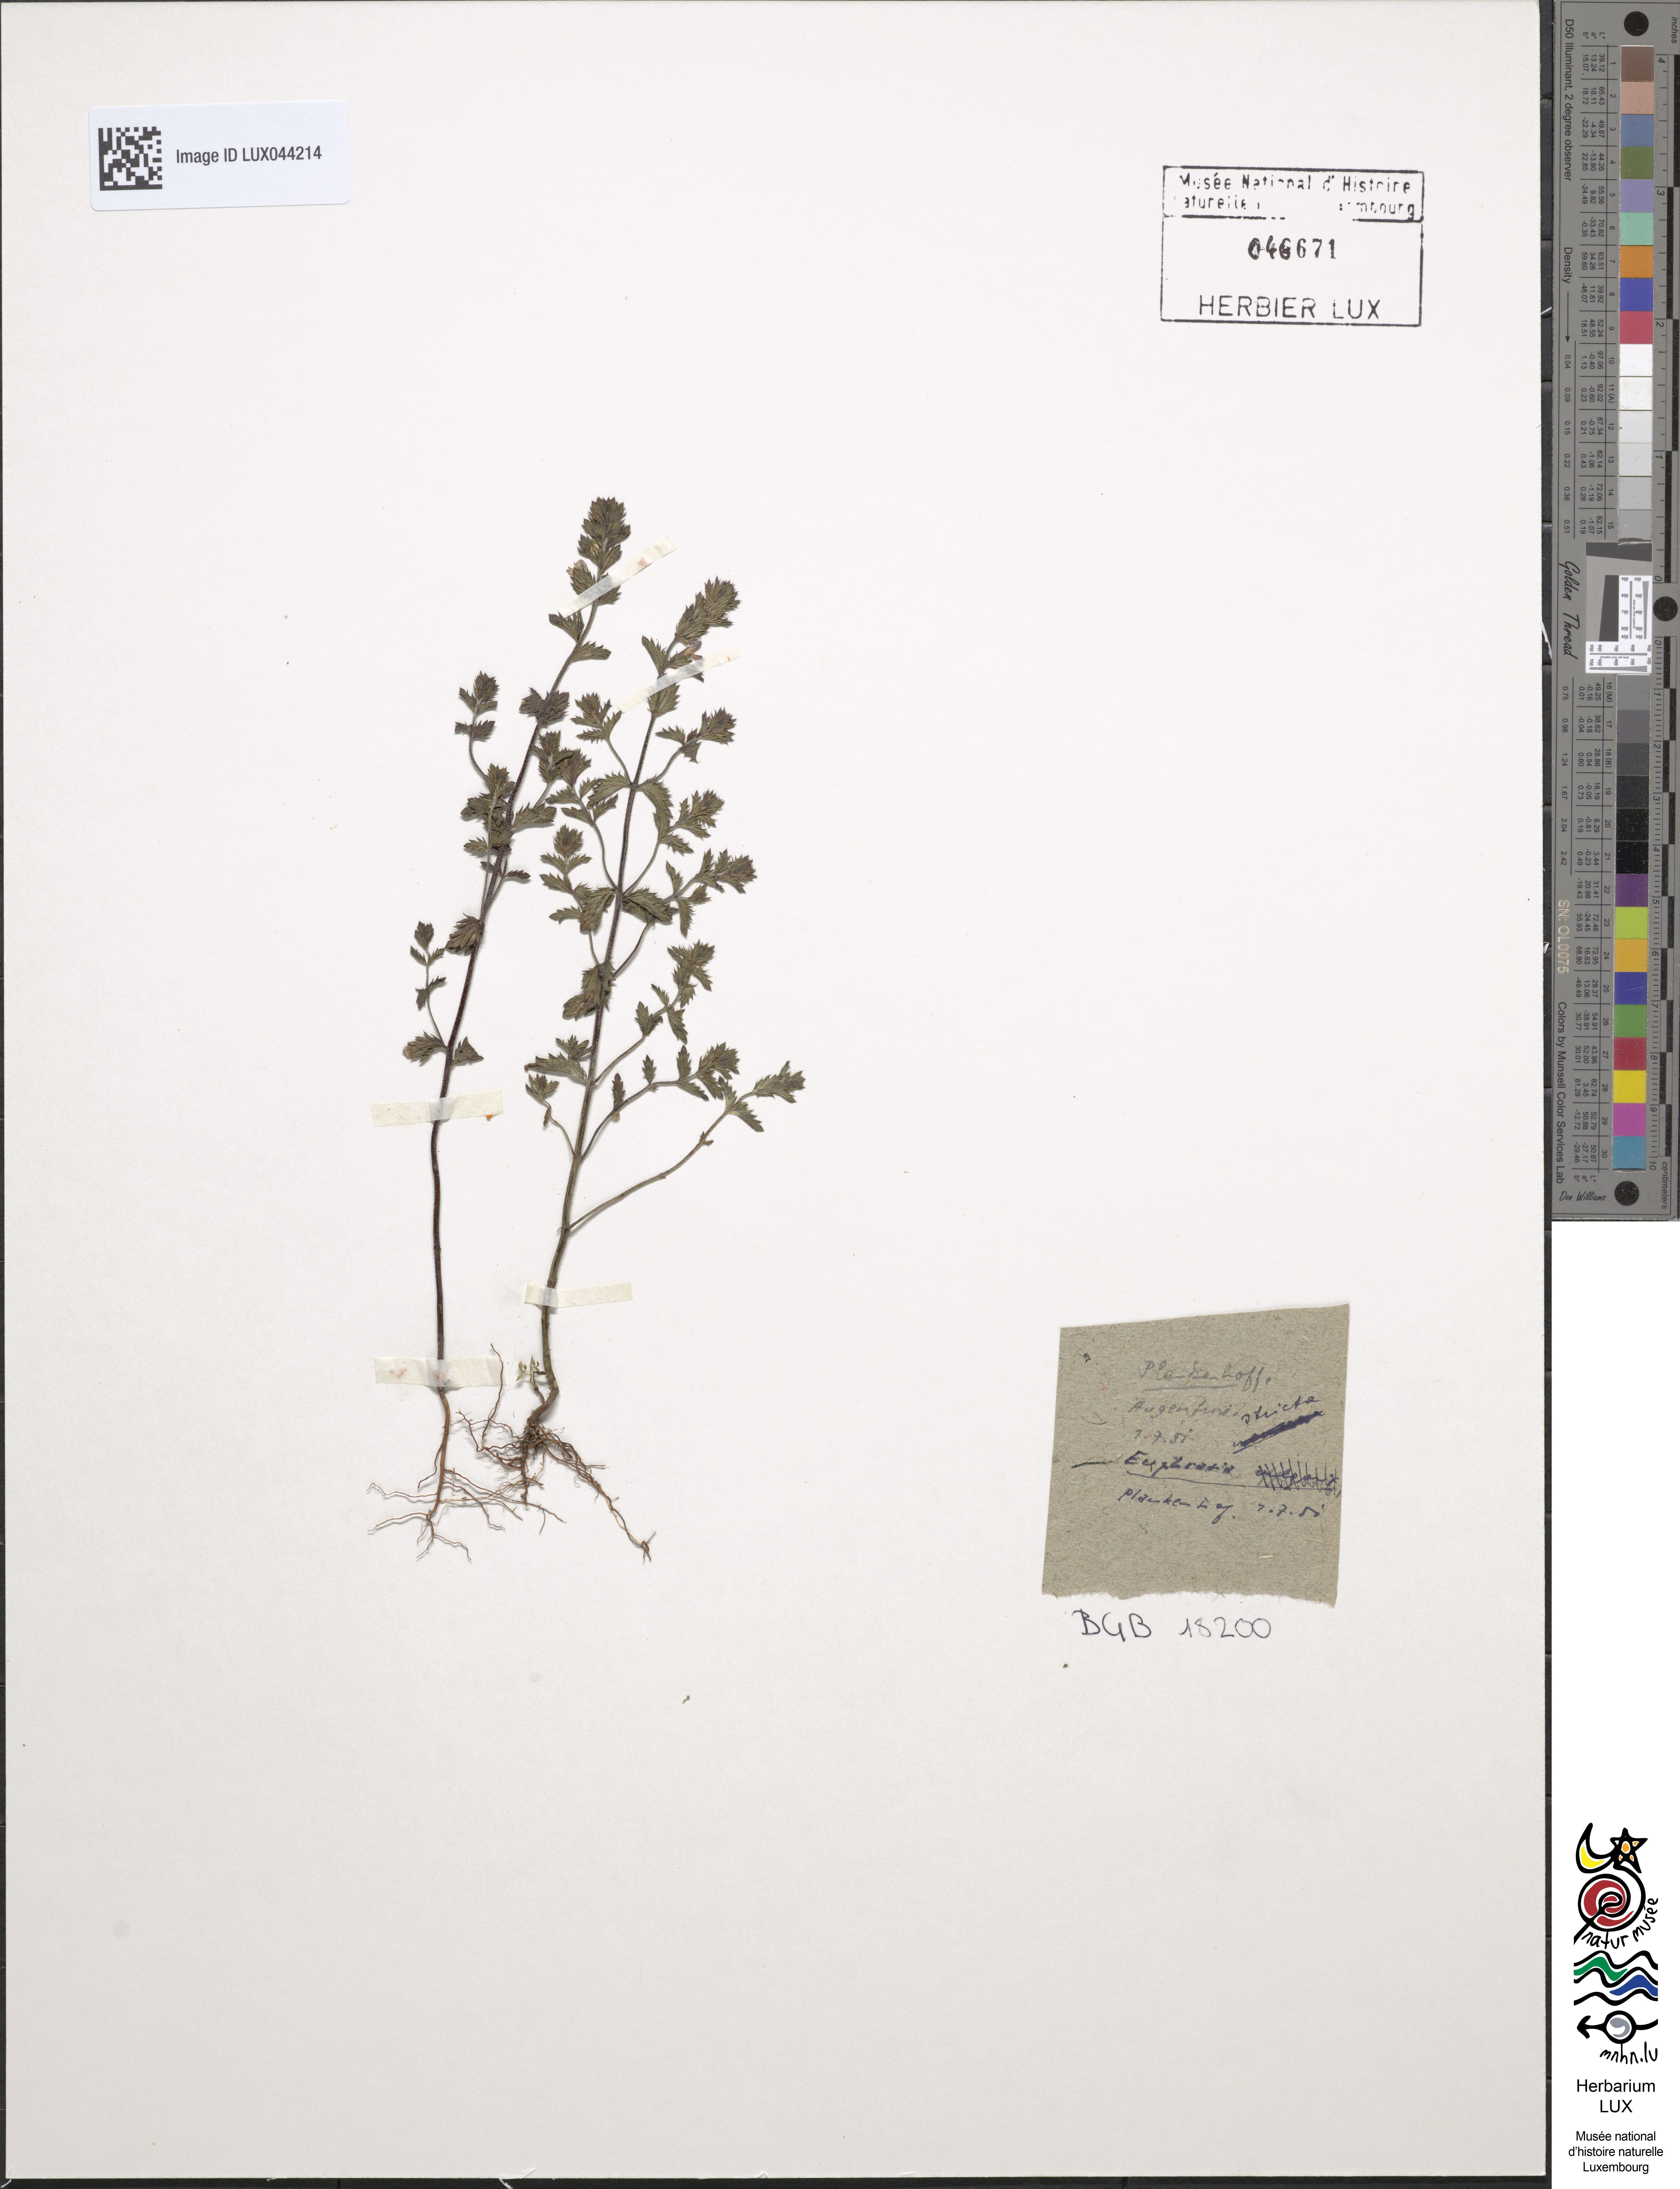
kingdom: Plantae
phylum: Tracheophyta
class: Magnoliopsida
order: Lamiales
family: Orobanchaceae
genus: Euphrasia
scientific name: Euphrasia
